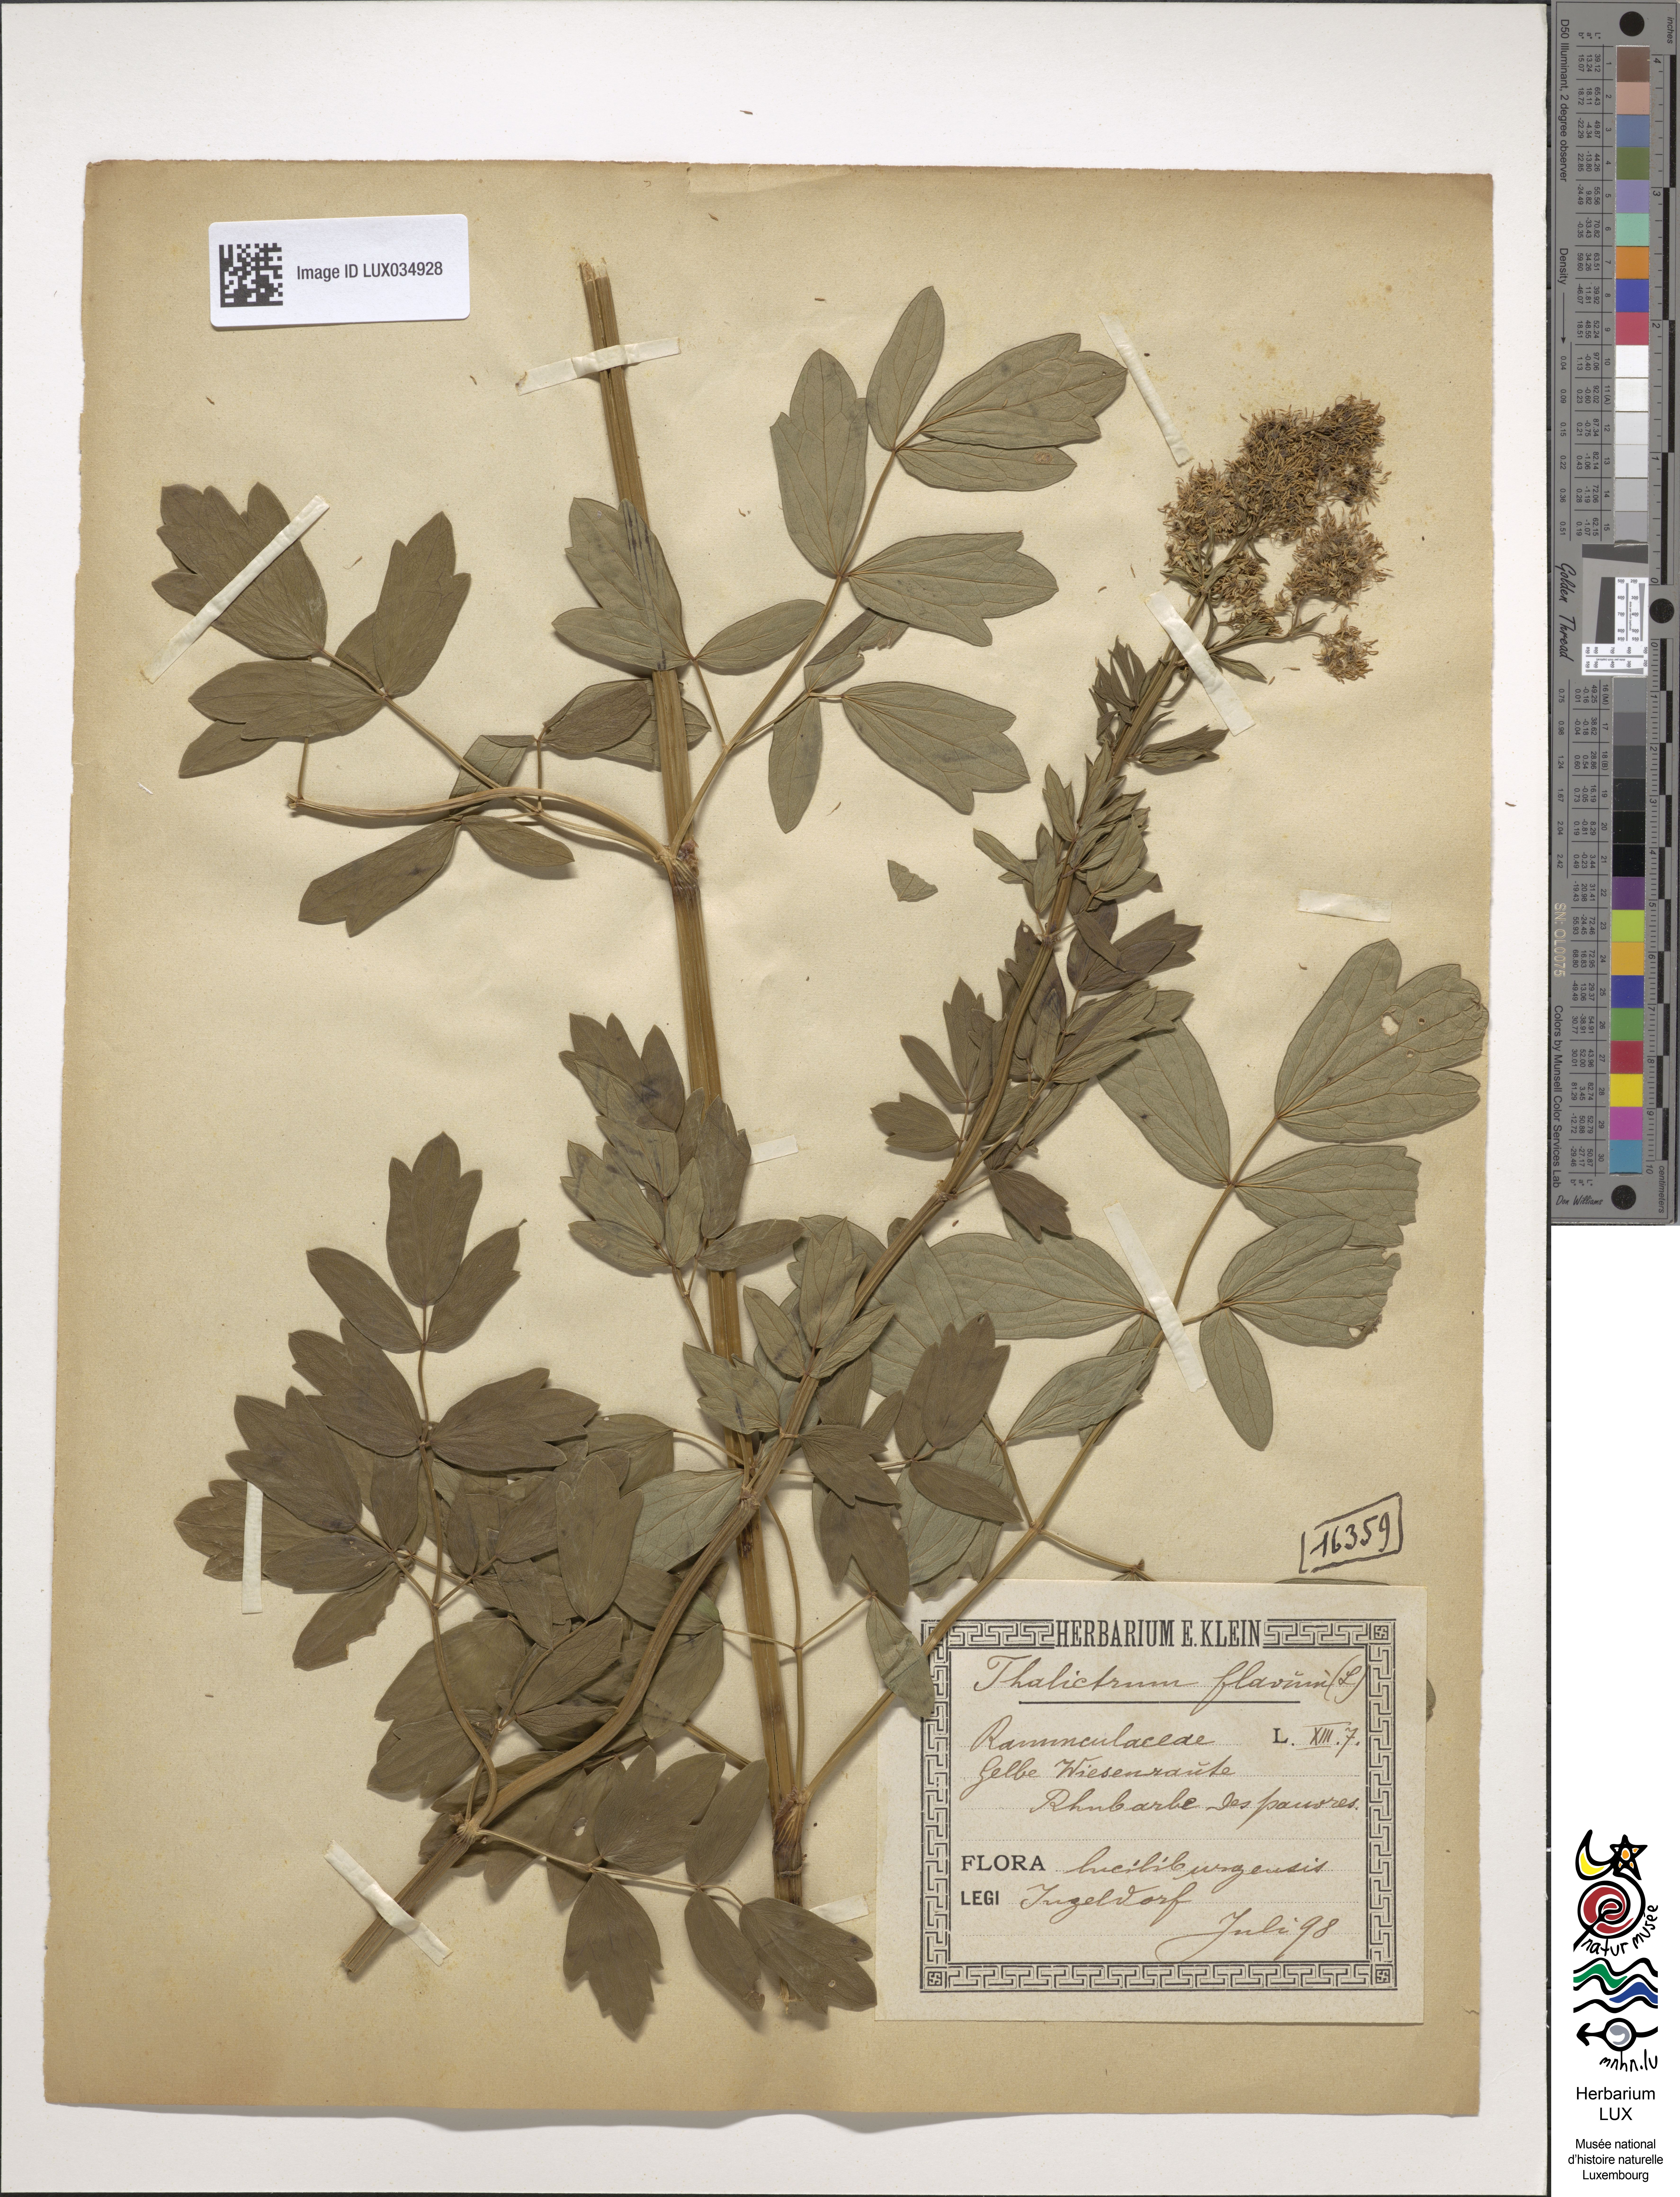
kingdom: Plantae
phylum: Tracheophyta
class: Magnoliopsida
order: Ranunculales
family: Ranunculaceae
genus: Thalictrum
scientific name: Thalictrum flavum
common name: Common meadow-rue
